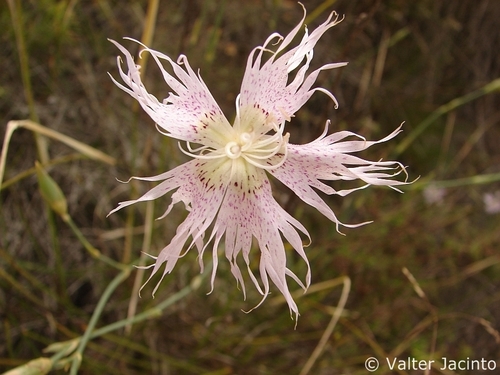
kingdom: Plantae
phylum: Tracheophyta
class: Magnoliopsida
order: Caryophyllales
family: Caryophyllaceae
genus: Dianthus
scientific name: Dianthus broteri
